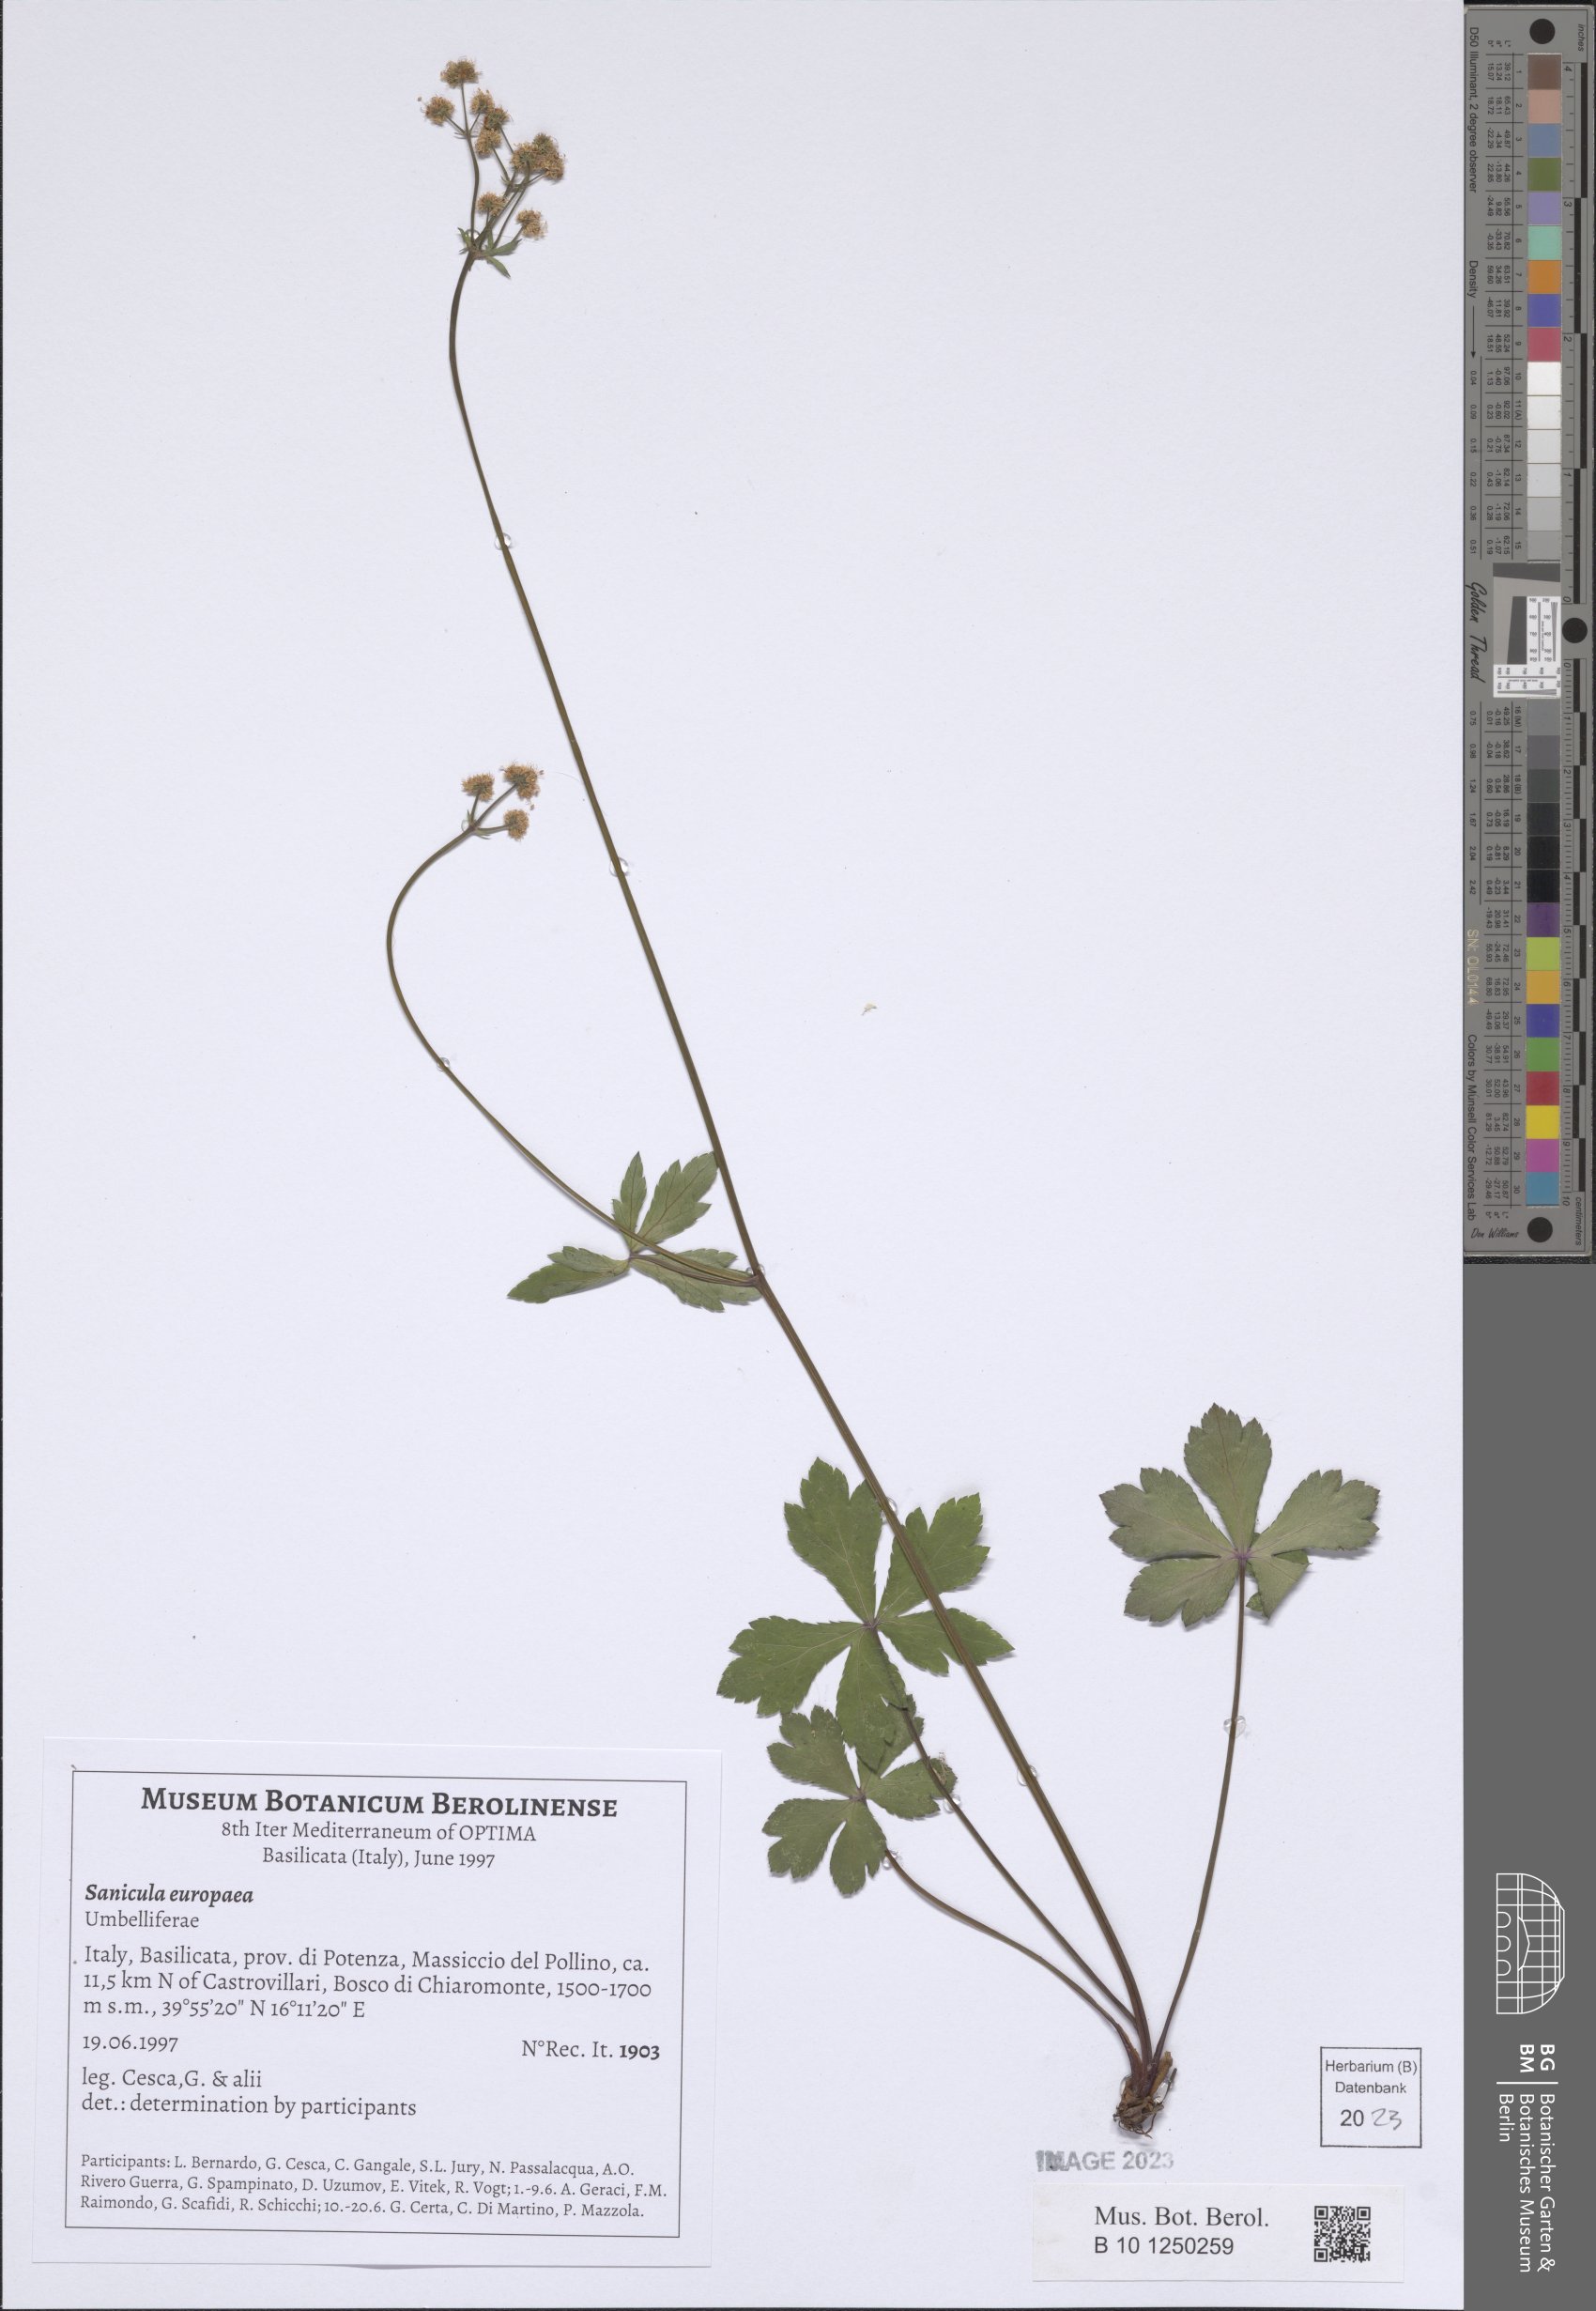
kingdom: Plantae
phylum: Tracheophyta
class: Magnoliopsida
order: Apiales
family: Apiaceae
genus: Sanicula
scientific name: Sanicula europaea
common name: Sanicle
